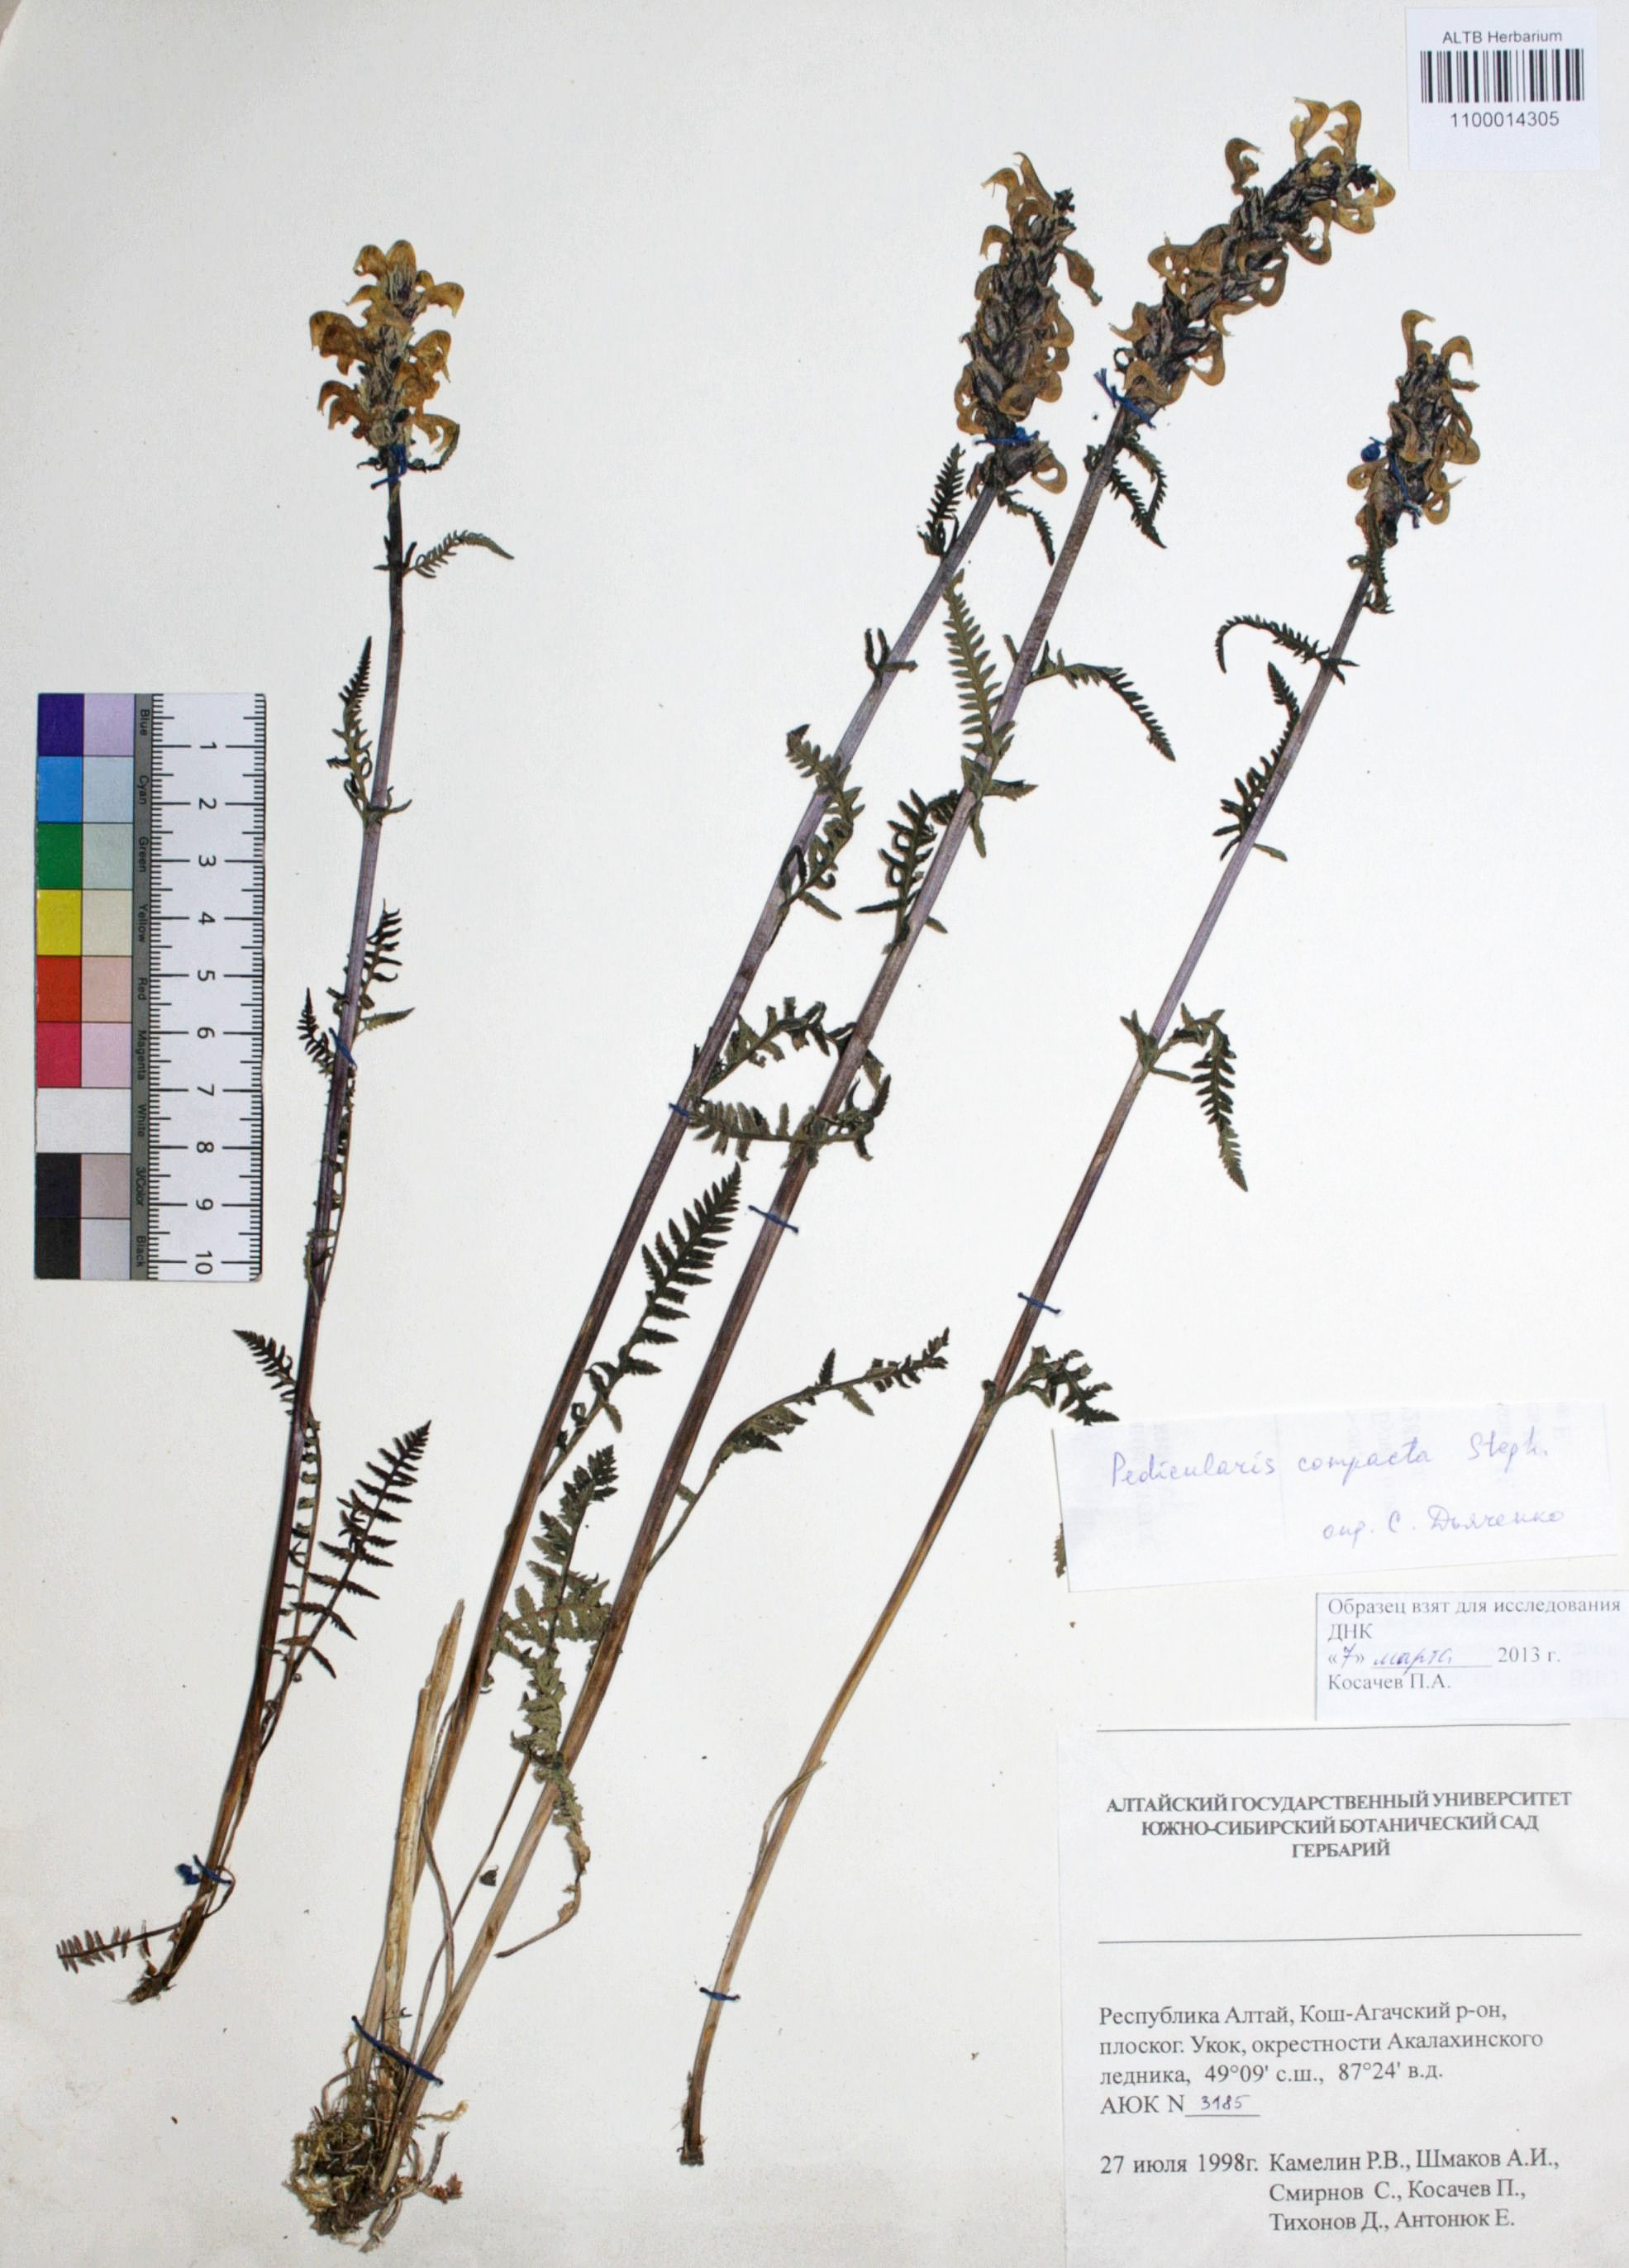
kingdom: Plantae
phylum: Tracheophyta
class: Magnoliopsida
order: Lamiales
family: Orobanchaceae
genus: Pedicularis
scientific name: Pedicularis compacta
